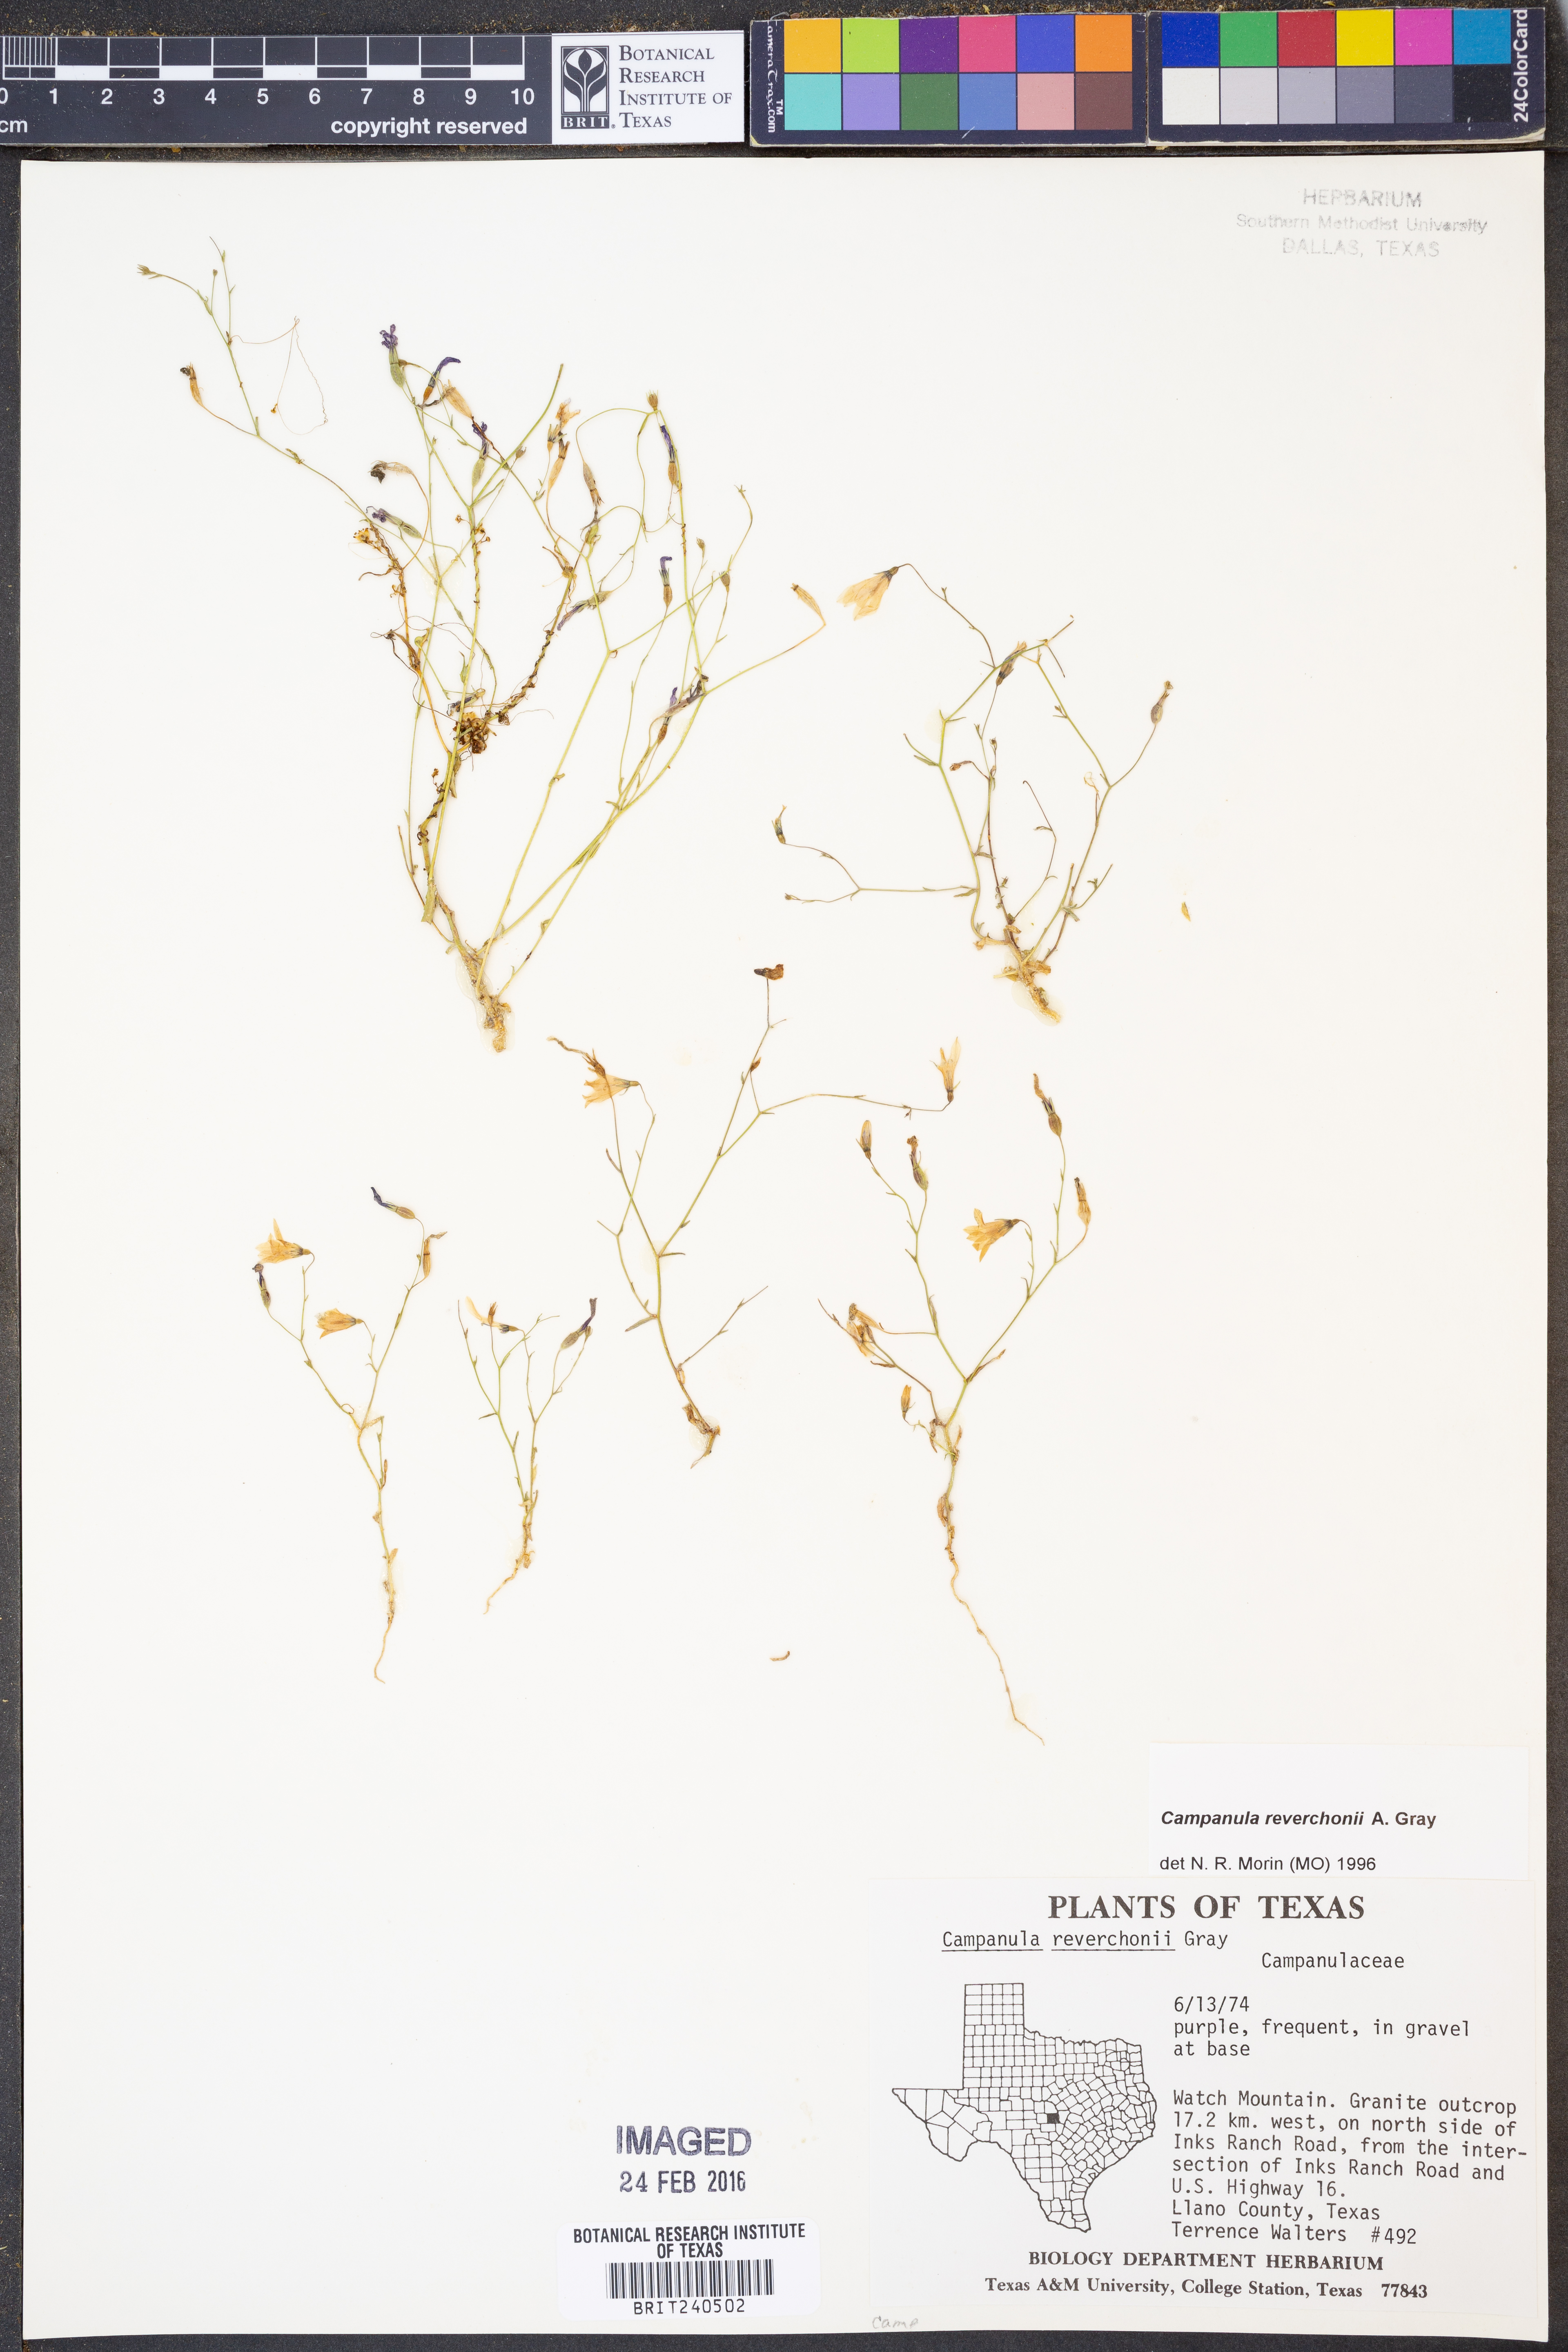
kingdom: Plantae
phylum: Tracheophyta
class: Magnoliopsida
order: Asterales
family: Campanulaceae
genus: Poolea
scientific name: Poolea reverchonii
